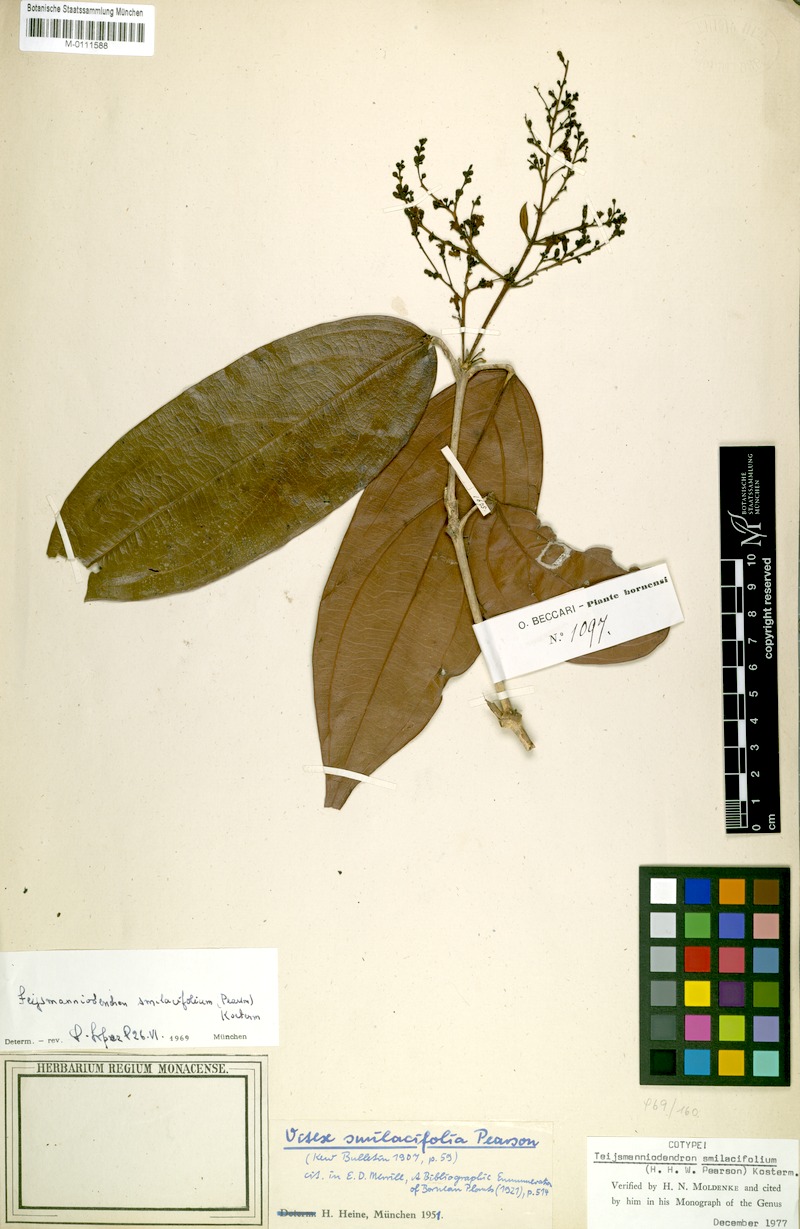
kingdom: Plantae
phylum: Tracheophyta
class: Magnoliopsida
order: Lamiales
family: Lamiaceae
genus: Teijsmanniodendron
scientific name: Teijsmanniodendron smilacifolium
